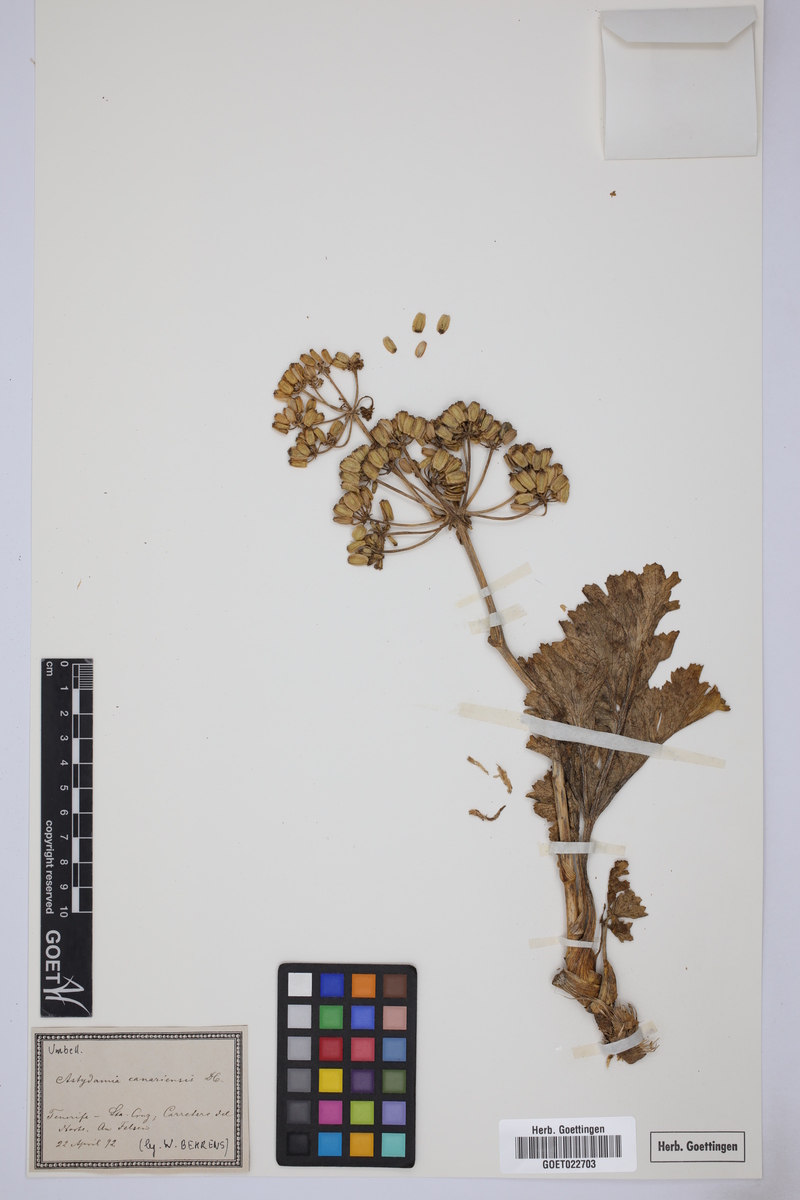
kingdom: Plantae
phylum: Tracheophyta
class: Magnoliopsida
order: Apiales
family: Apiaceae
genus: Astydamia
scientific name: Astydamia latifolia
